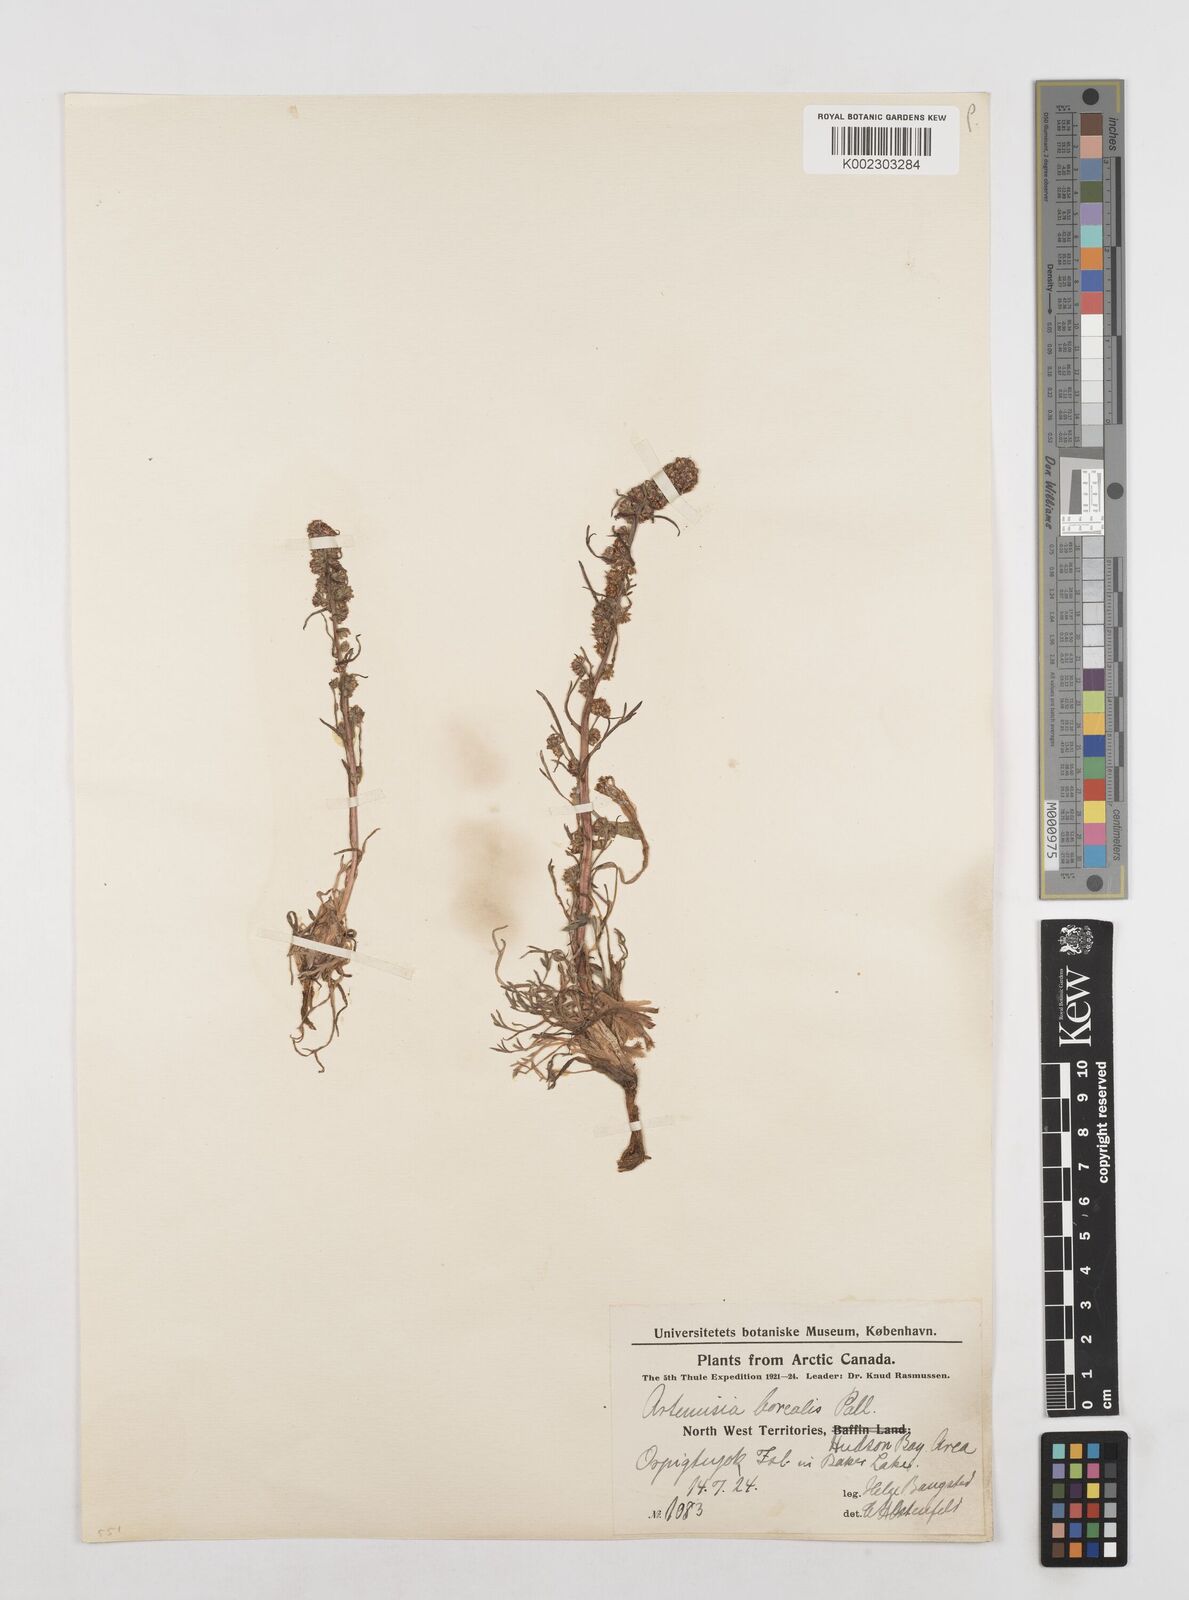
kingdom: Plantae
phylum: Tracheophyta
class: Magnoliopsida
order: Asterales
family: Asteraceae
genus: Artemisia
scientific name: Artemisia borealis
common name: Boreal sage
